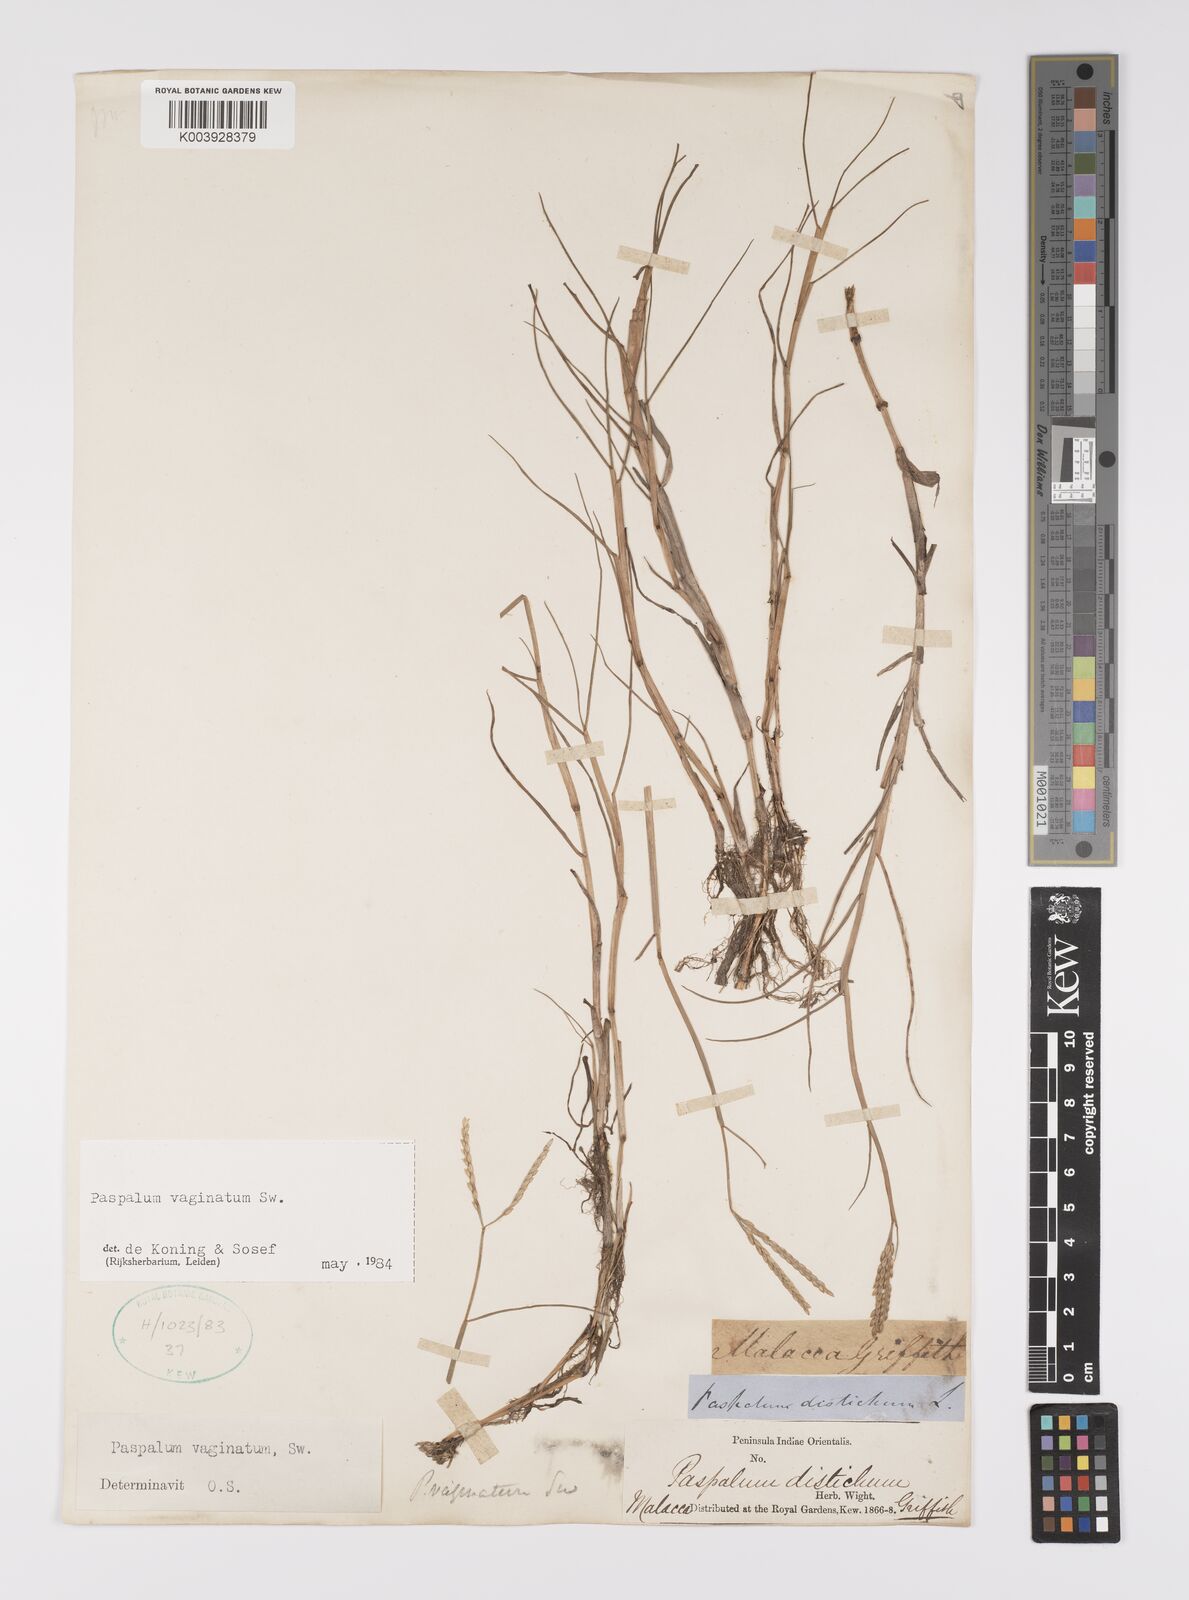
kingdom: Plantae
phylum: Tracheophyta
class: Liliopsida
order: Poales
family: Poaceae
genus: Paspalum
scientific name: Paspalum vaginatum
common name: Seashore paspalum
